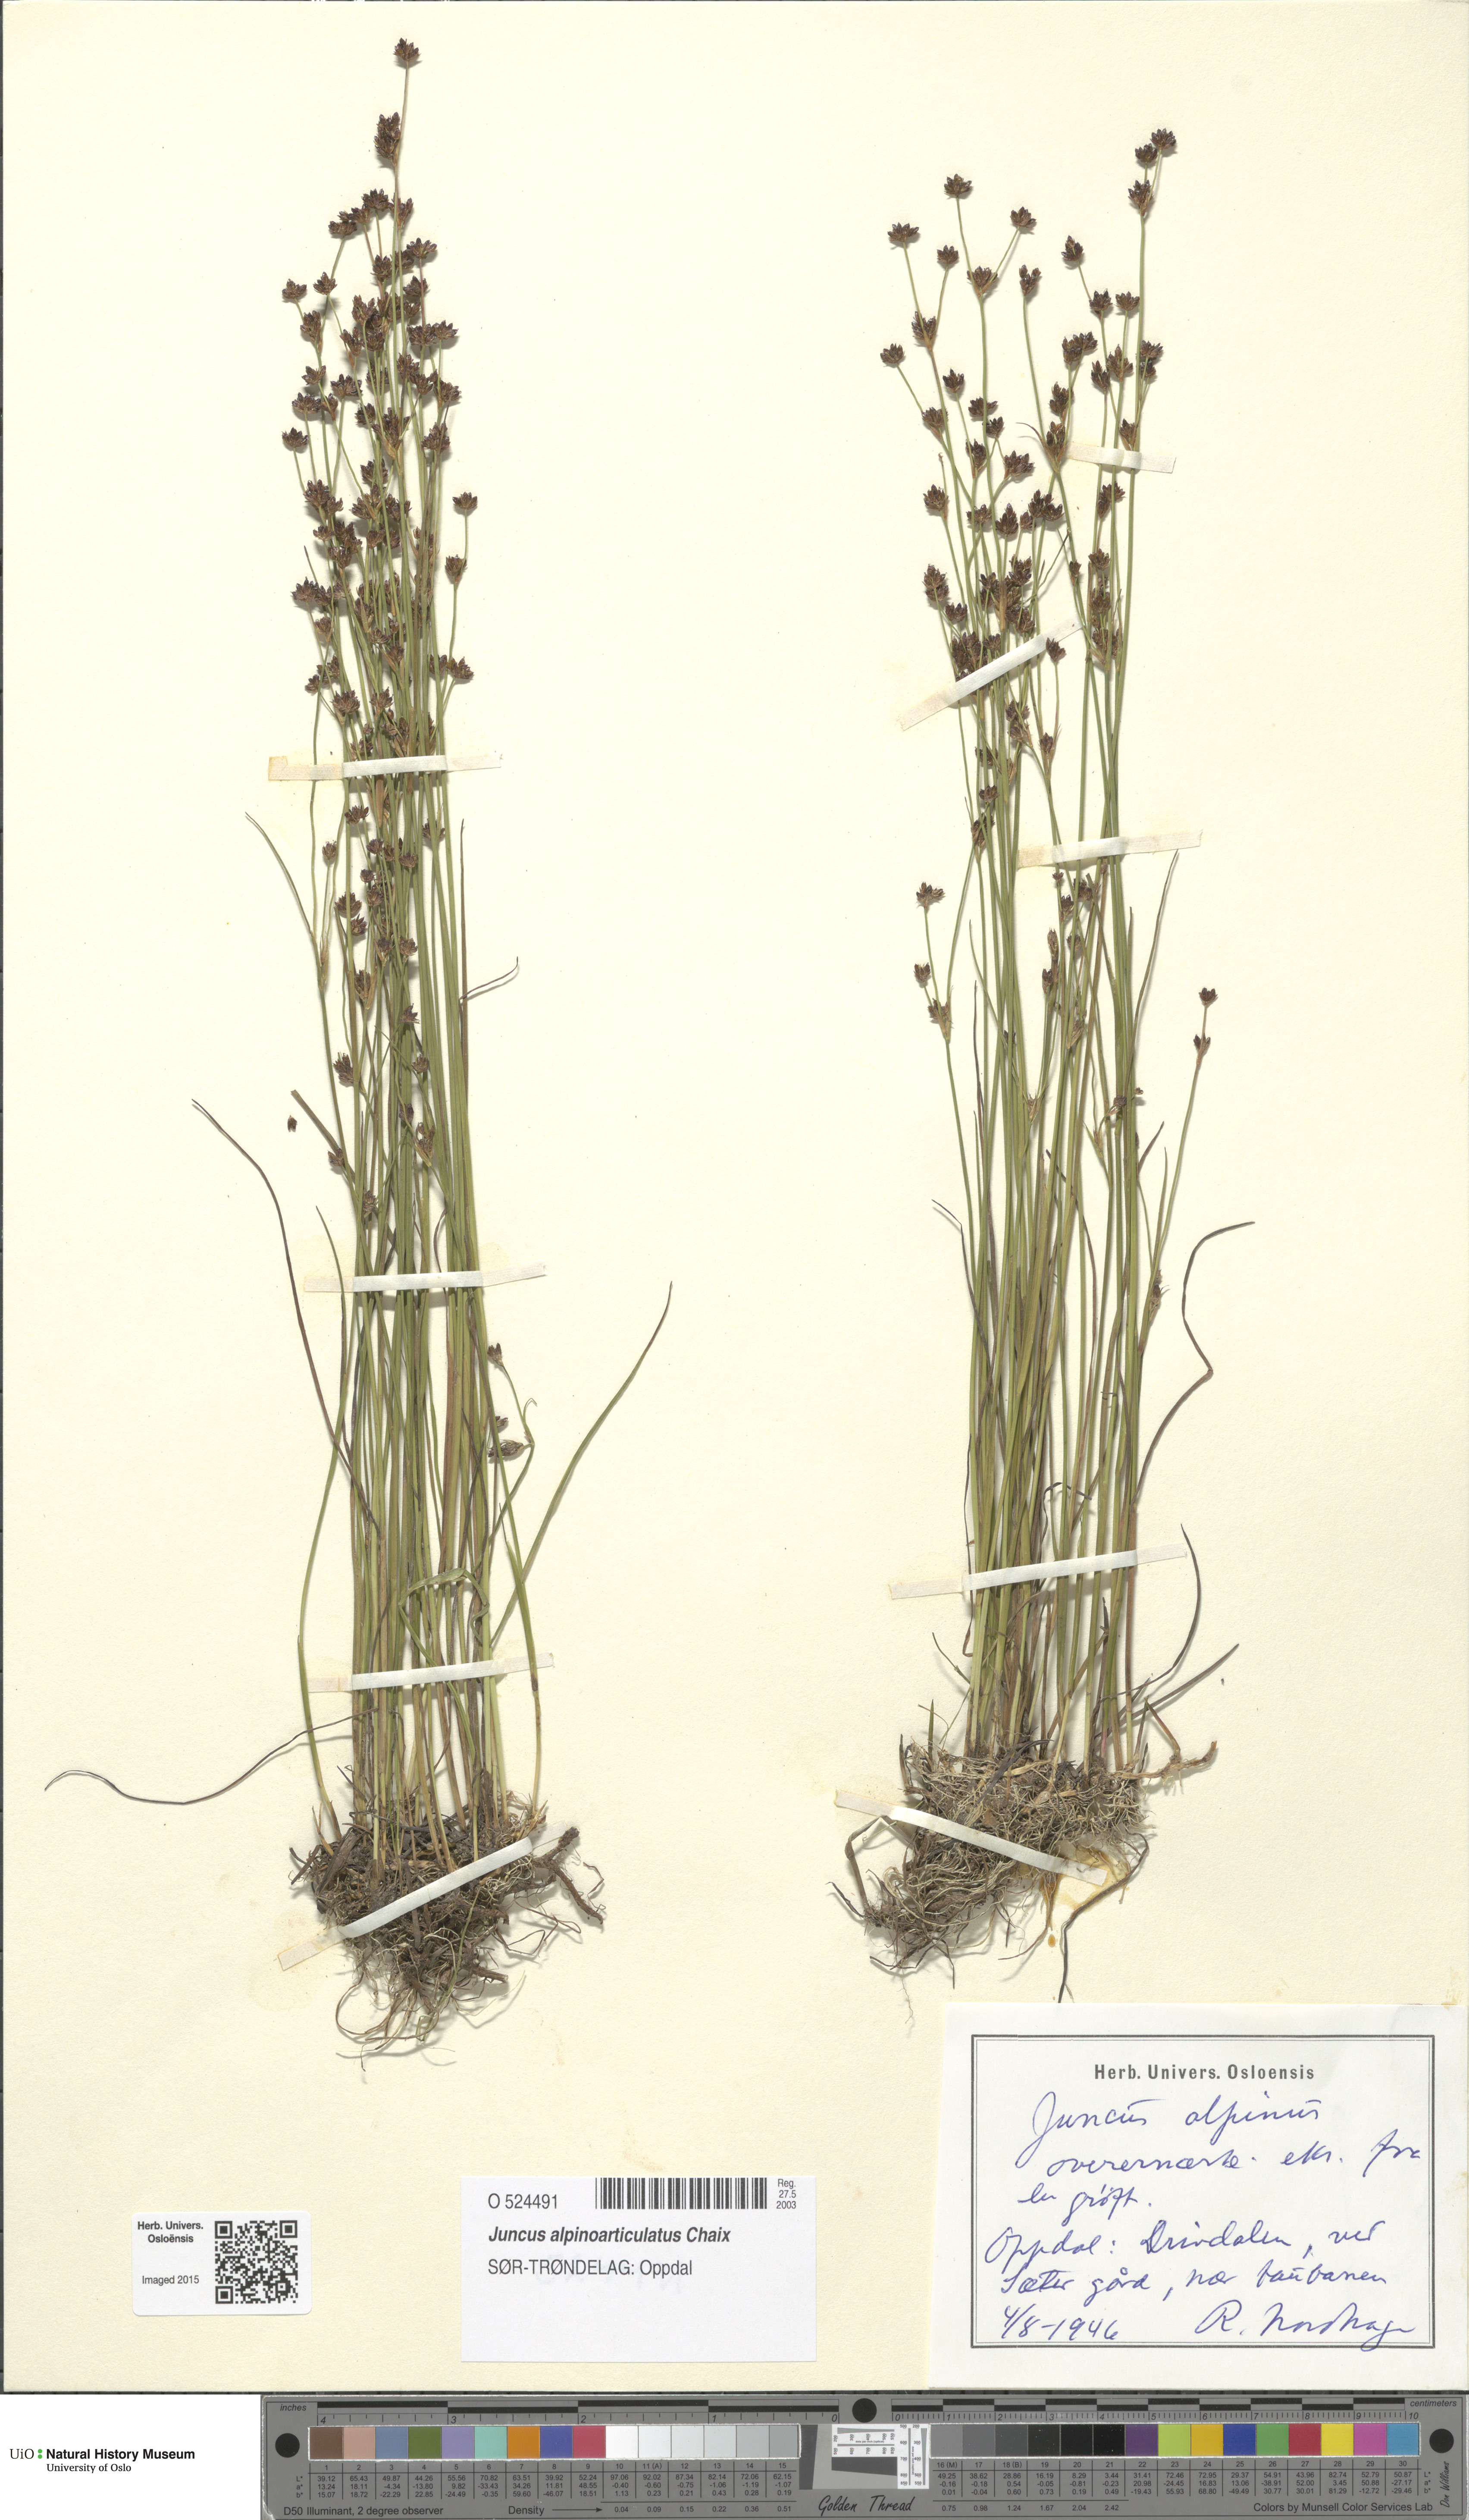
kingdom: Plantae
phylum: Tracheophyta
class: Liliopsida
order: Poales
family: Juncaceae
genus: Juncus
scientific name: Juncus alpinoarticulatus
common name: Alpine rush
